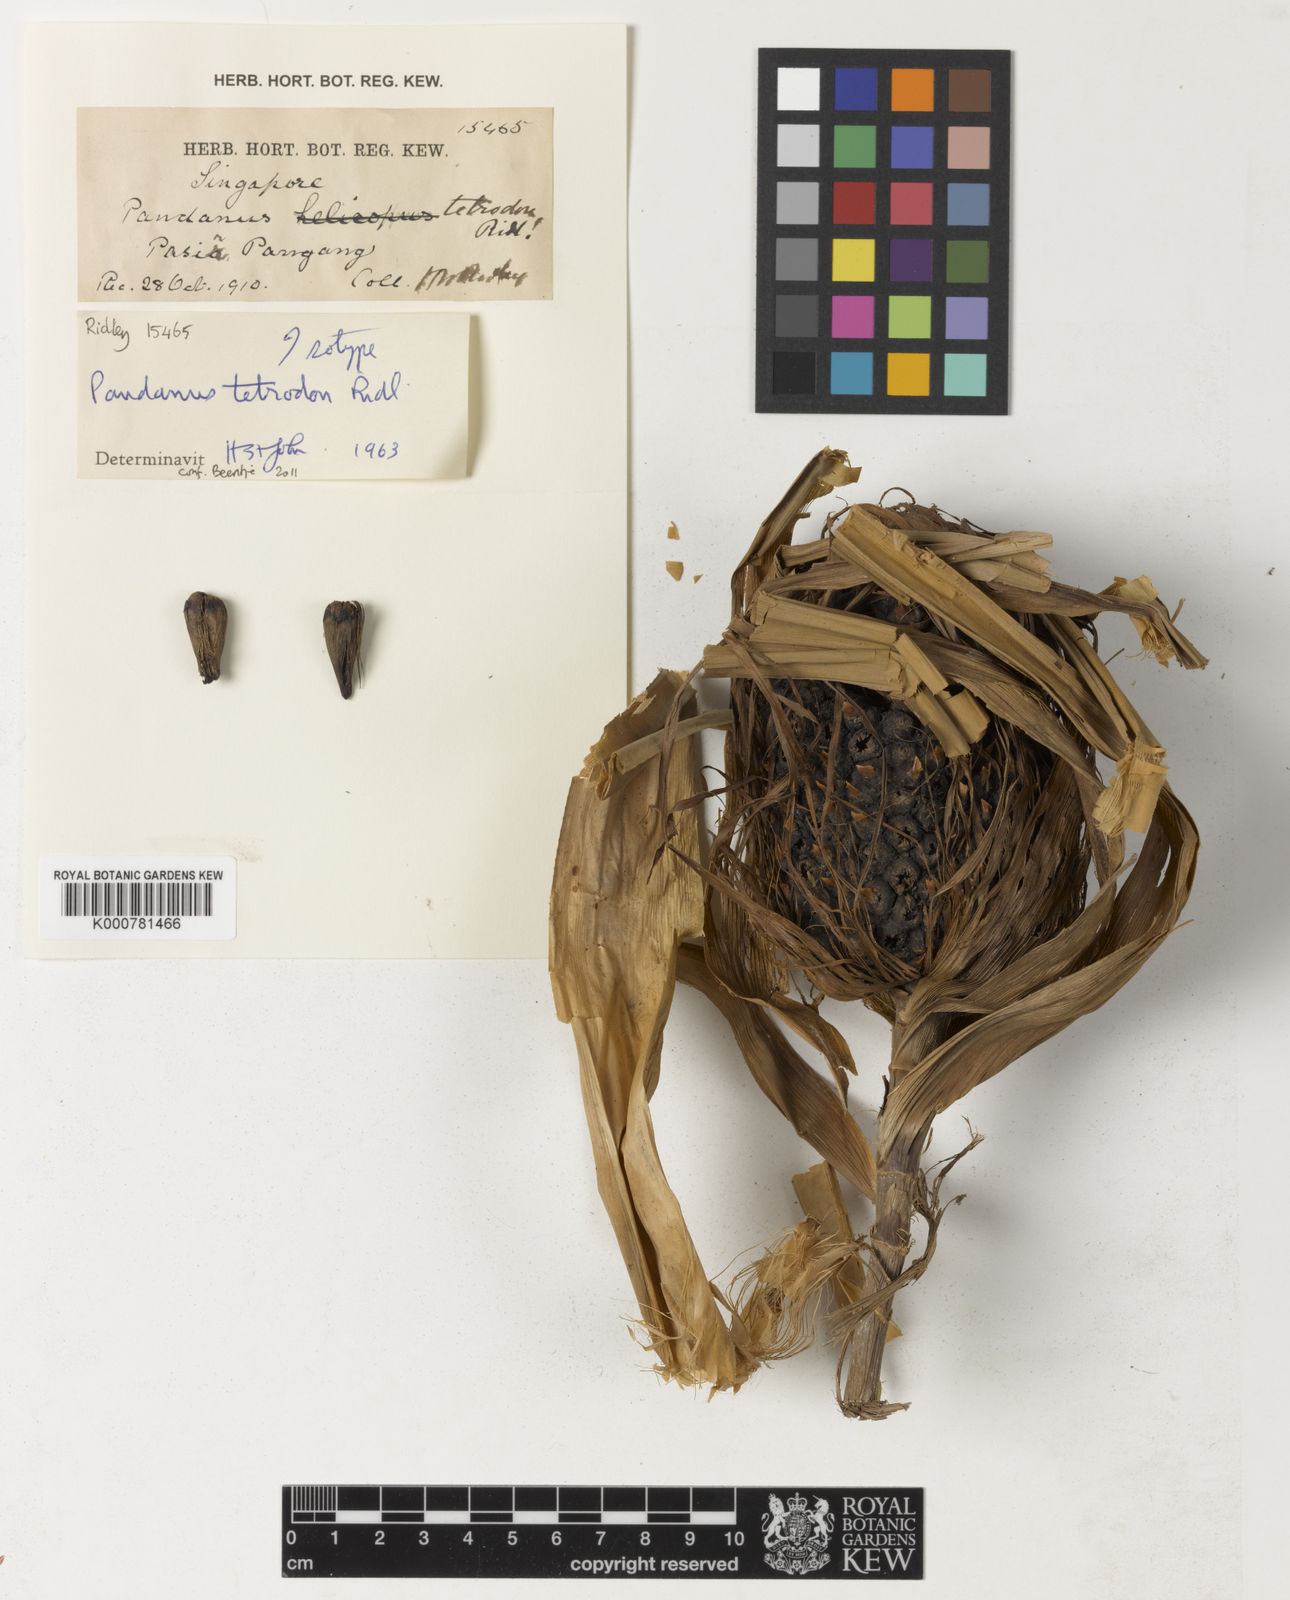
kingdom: Plantae
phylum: Tracheophyta
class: Liliopsida
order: Pandanales
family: Pandanaceae
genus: Pandanus
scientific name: Pandanus singaporensis
